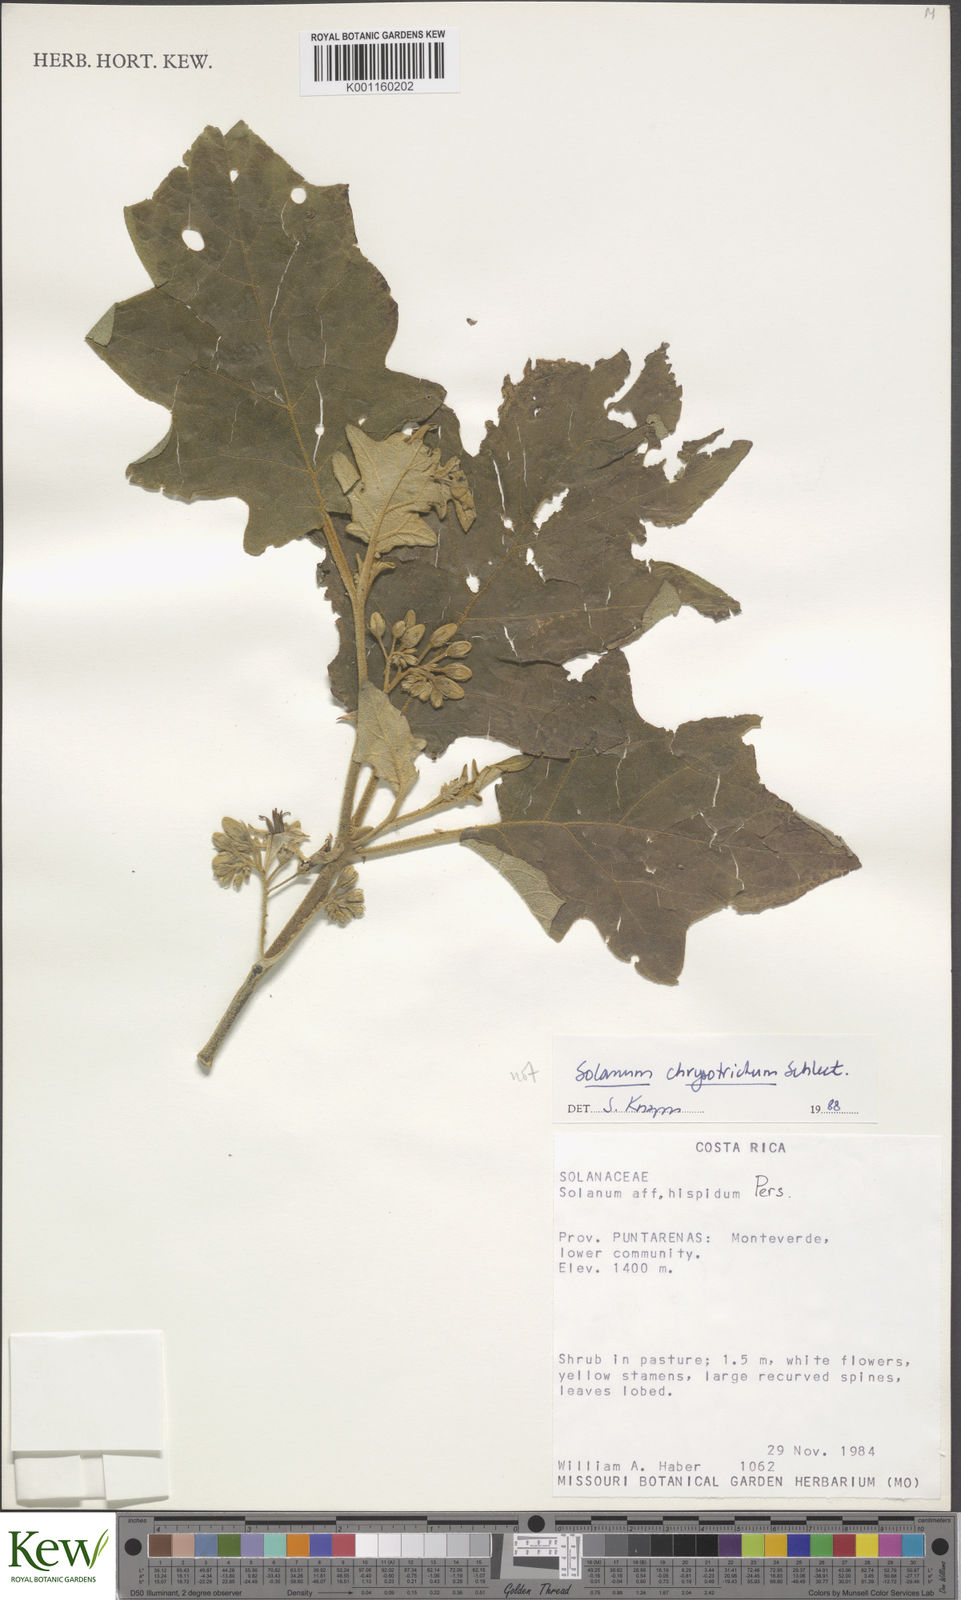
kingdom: Plantae
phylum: Tracheophyta
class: Magnoliopsida
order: Solanales
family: Solanaceae
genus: Solanum
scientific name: Solanum chrysotrichum
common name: Nightshade
